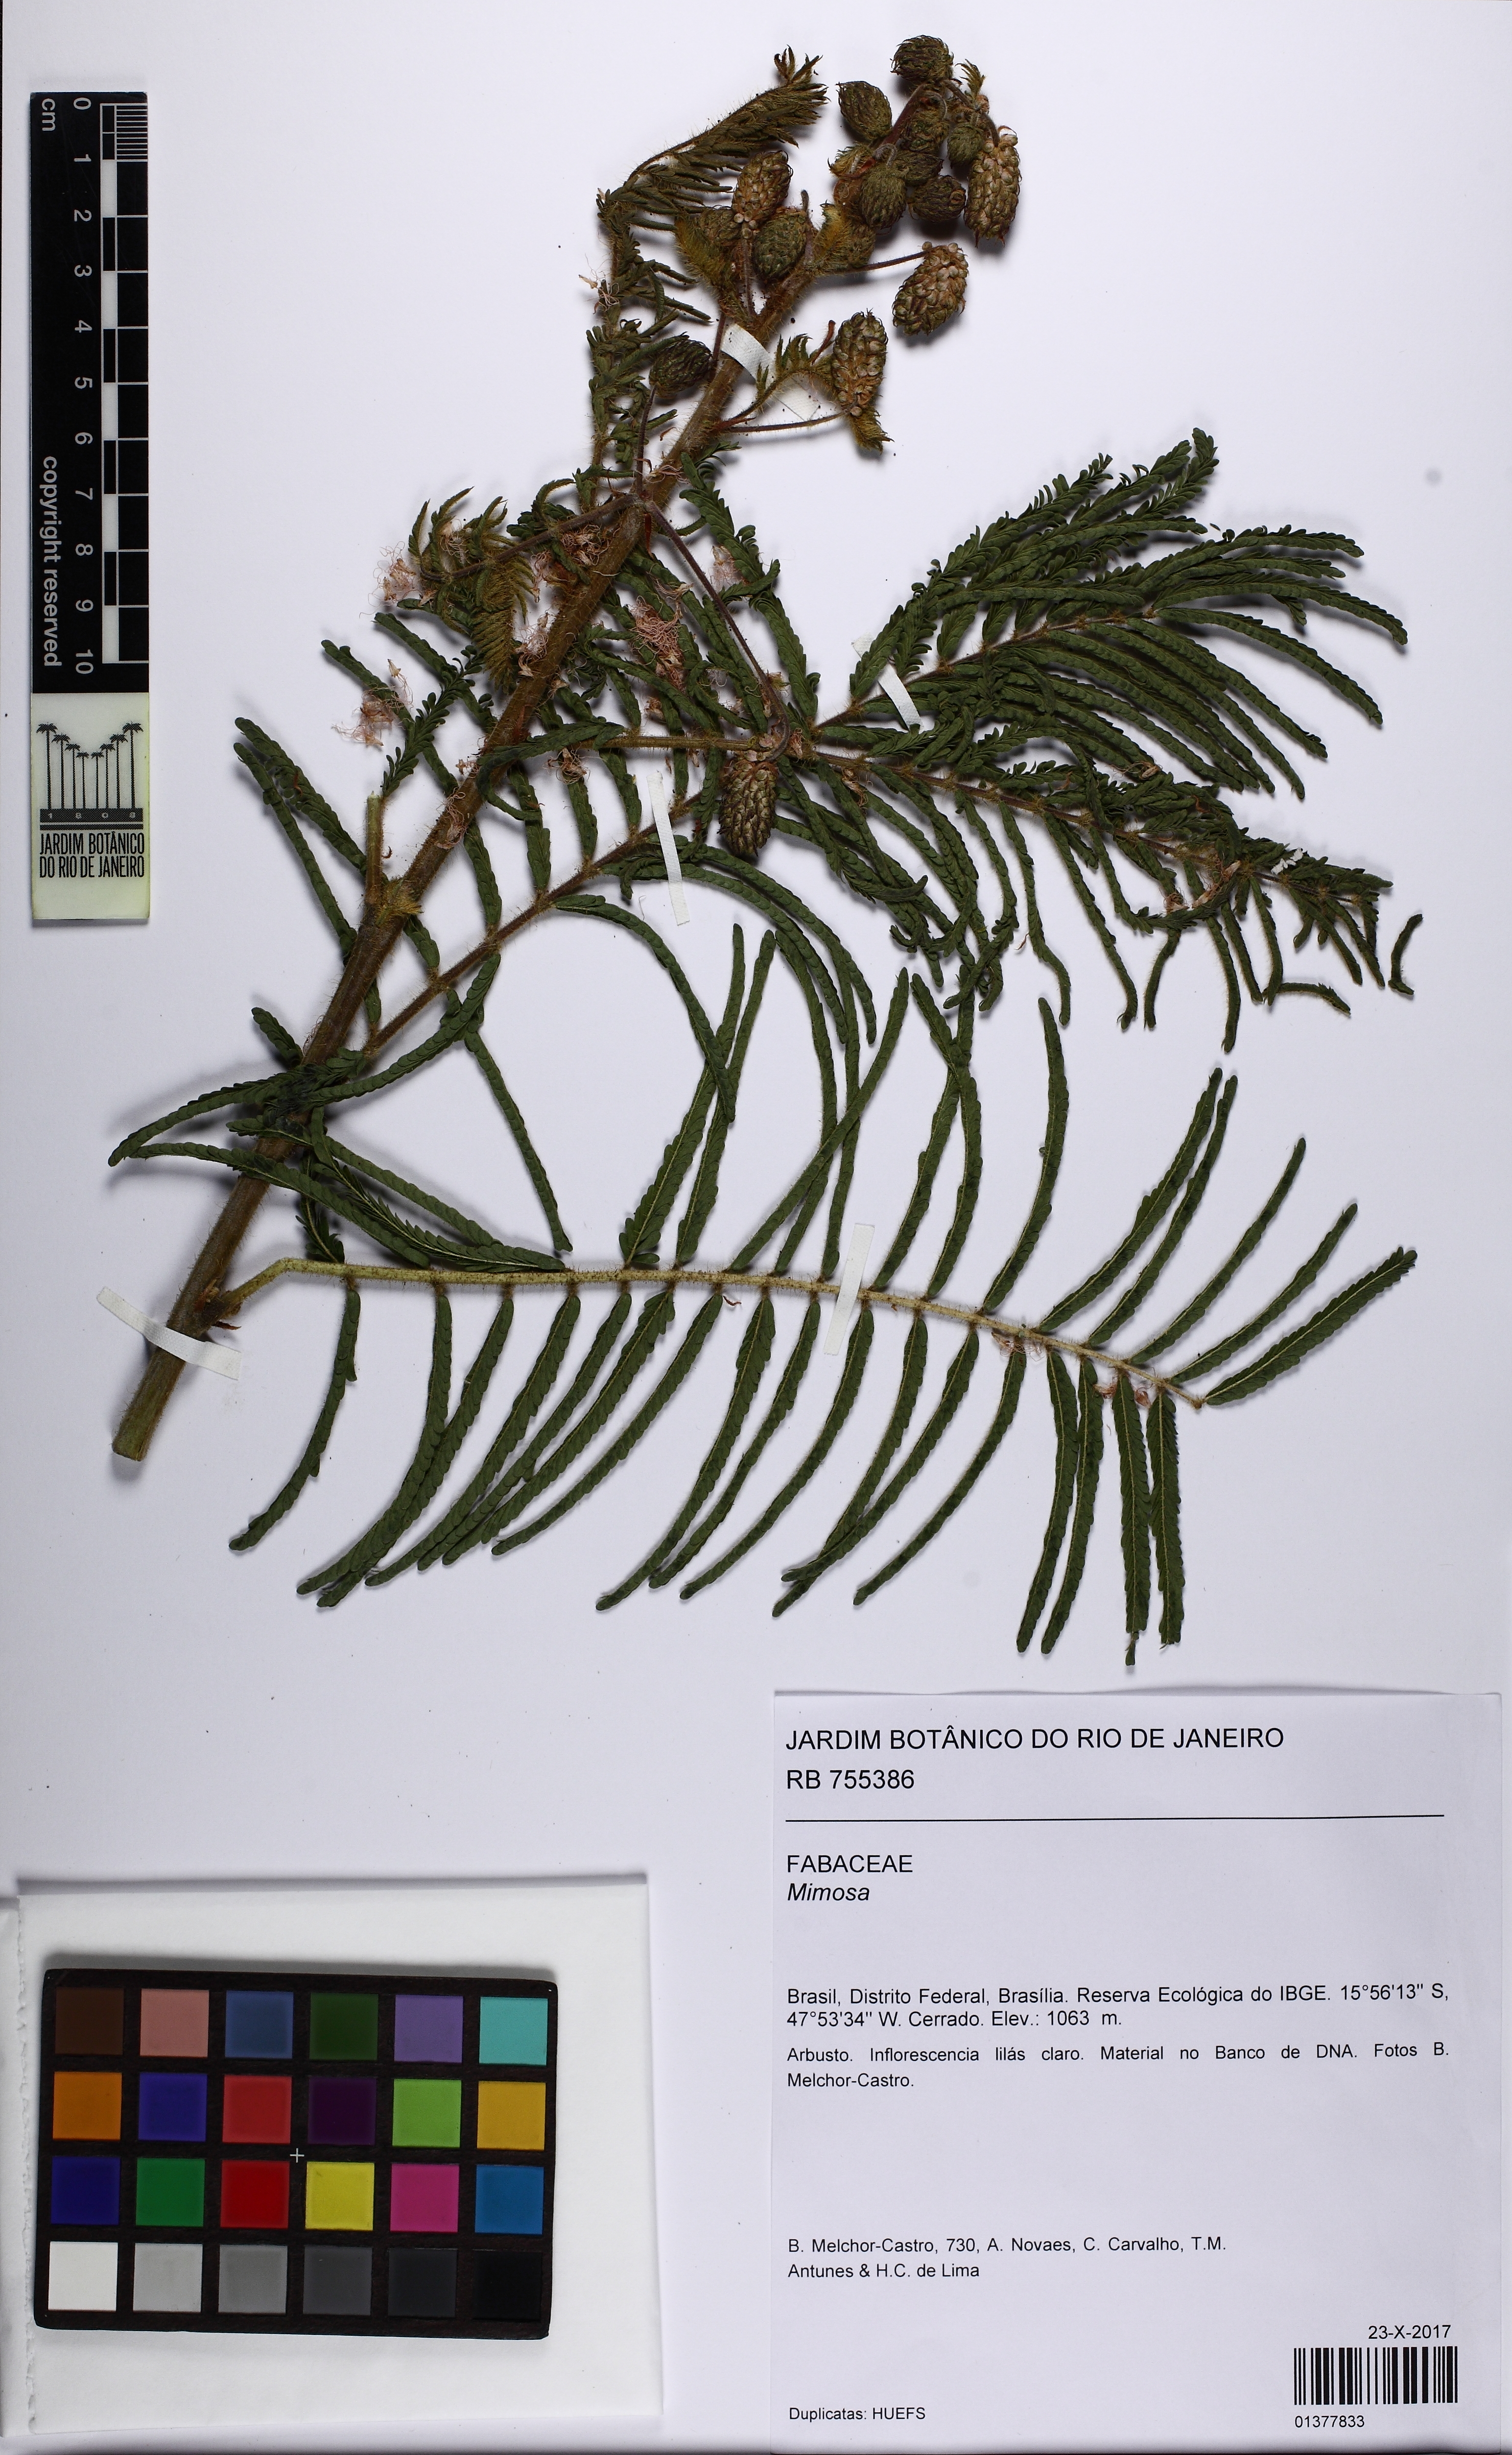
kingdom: Plantae
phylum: Tracheophyta
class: Magnoliopsida
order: Fabales
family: Fabaceae
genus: Mimosa
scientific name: Mimosa
